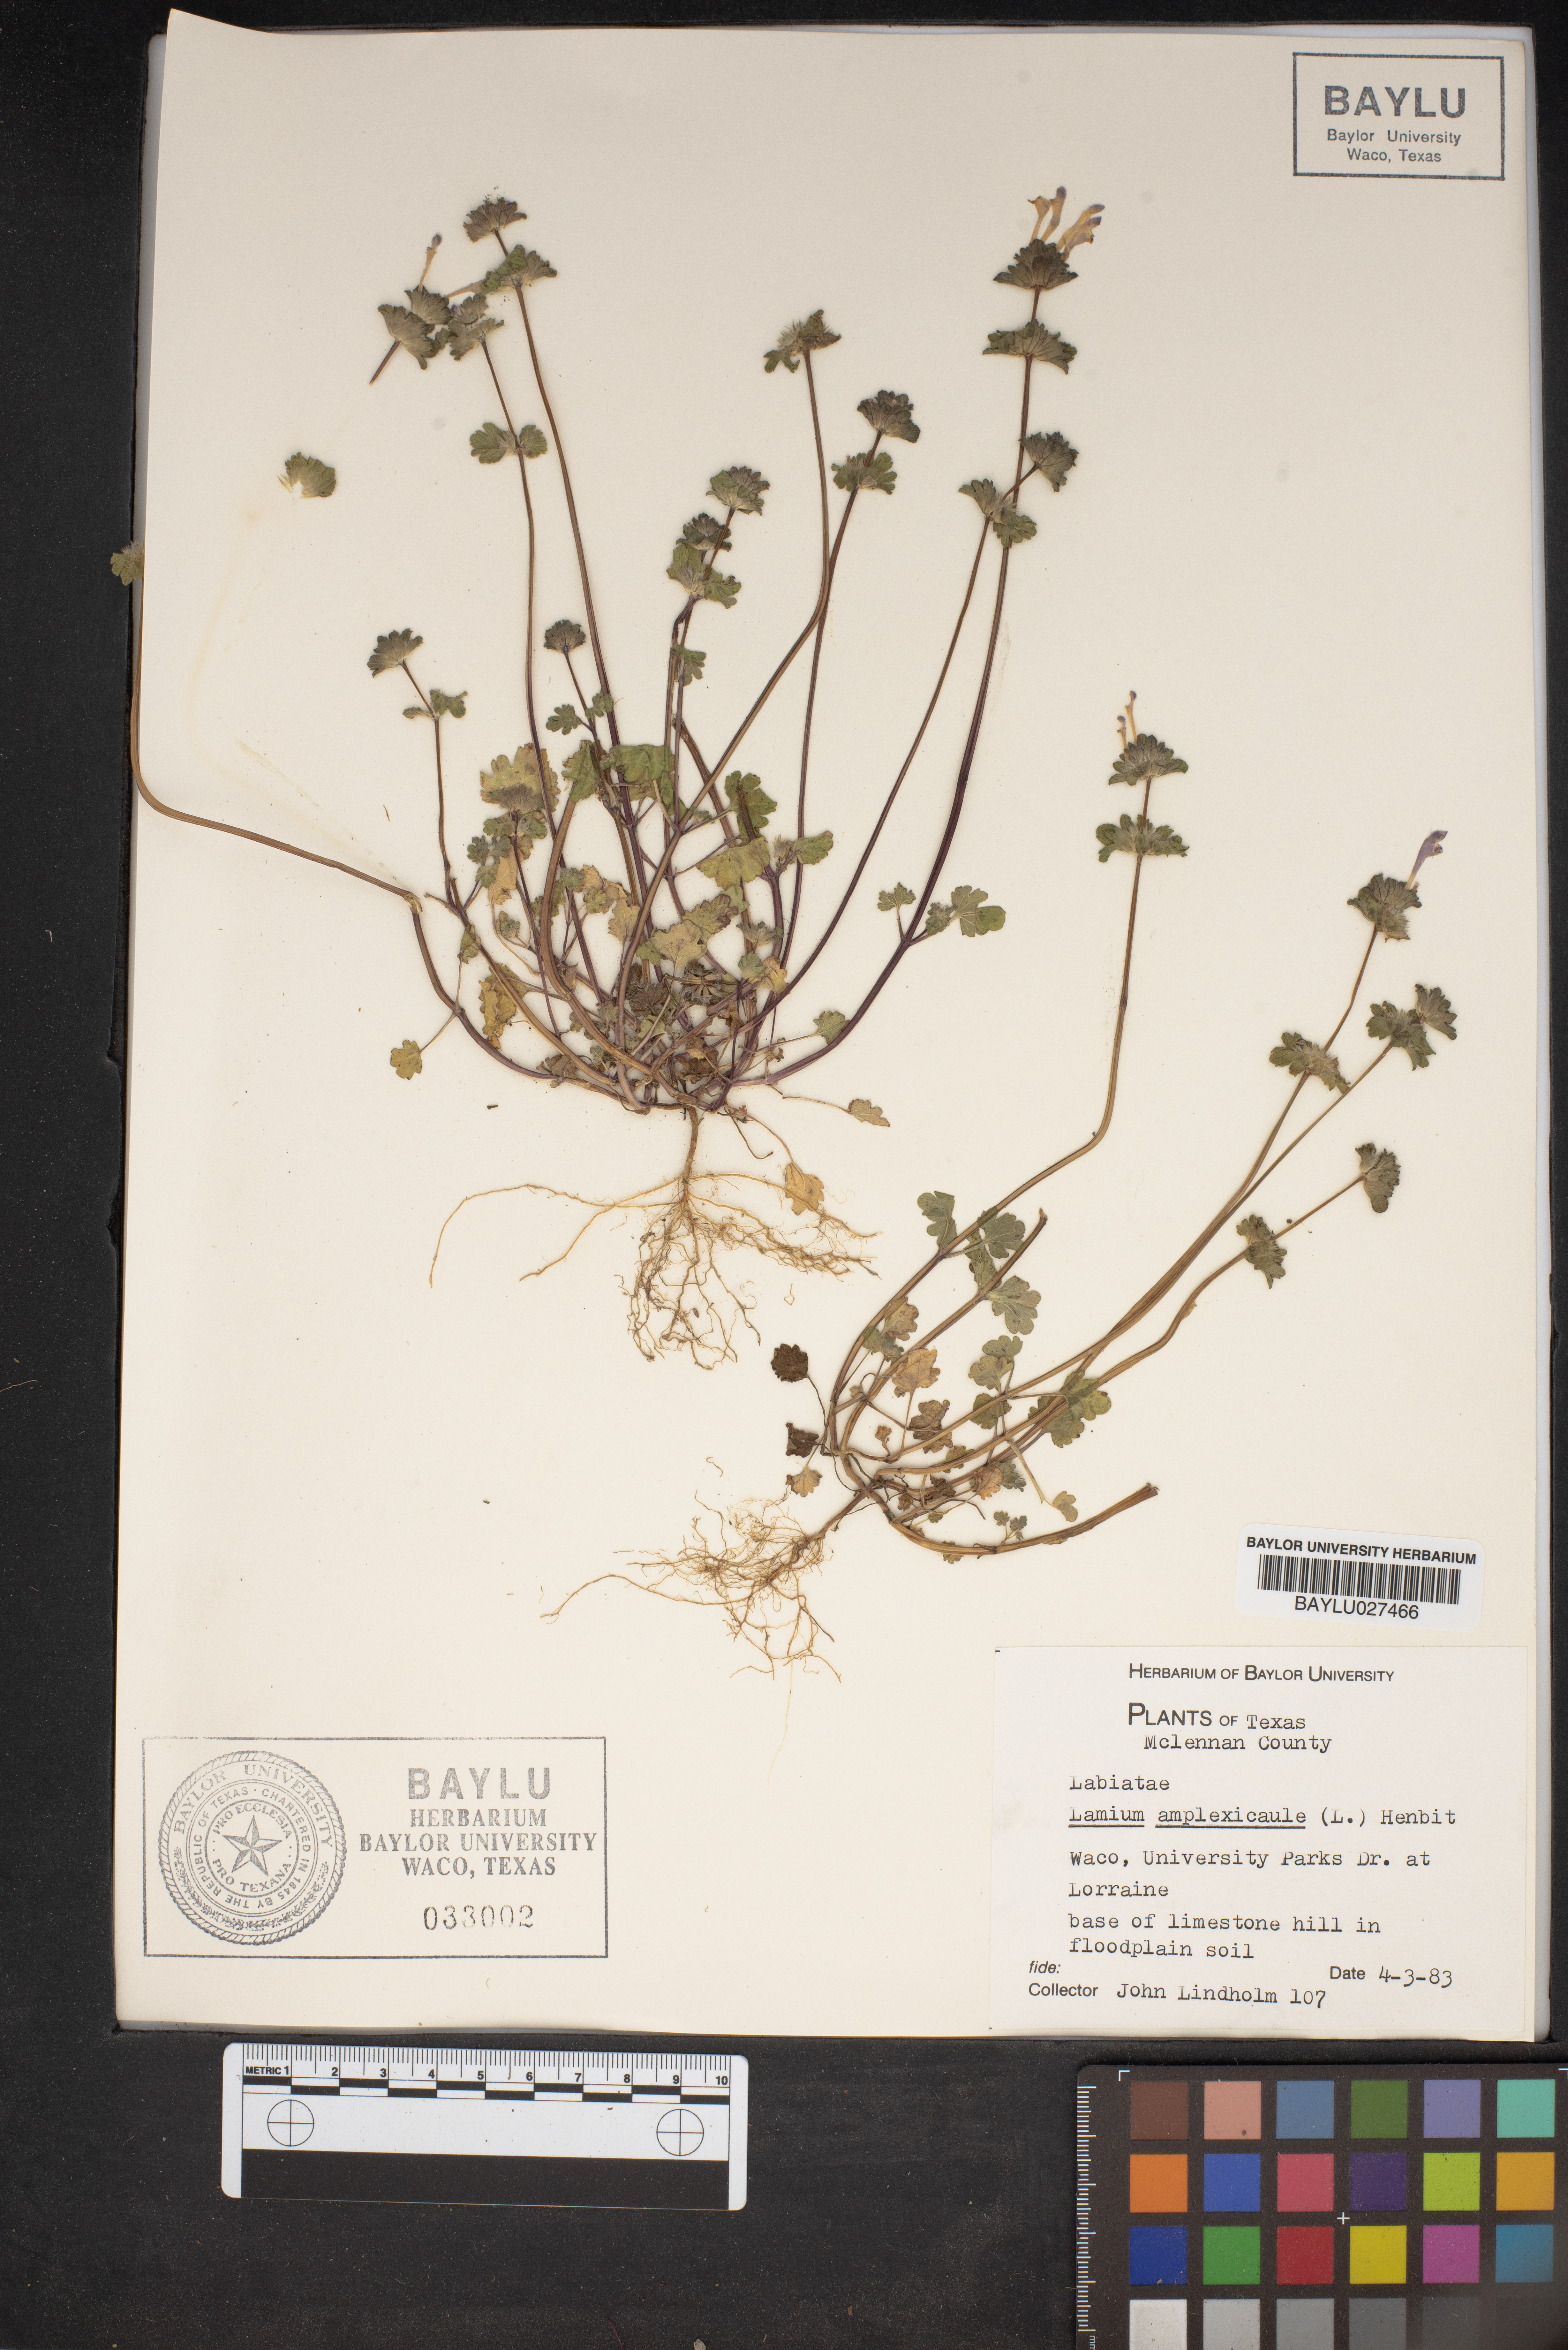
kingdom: Plantae
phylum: Tracheophyta
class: Magnoliopsida
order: Lamiales
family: Lamiaceae
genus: Lamium
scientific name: Lamium amplexicaule
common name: Henbit dead-nettle
